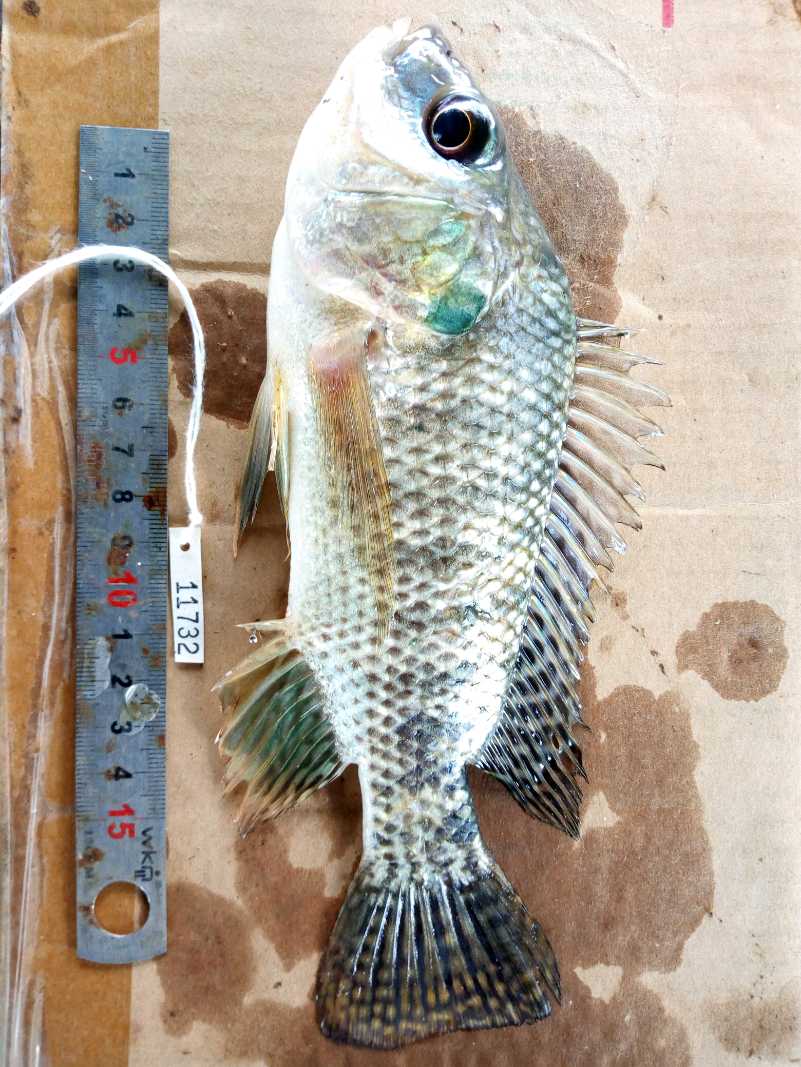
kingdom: Animalia
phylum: Chordata
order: Perciformes
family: Cichlidae
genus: Oreochromis
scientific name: Oreochromis spilurus
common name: Sabaki tilapia
